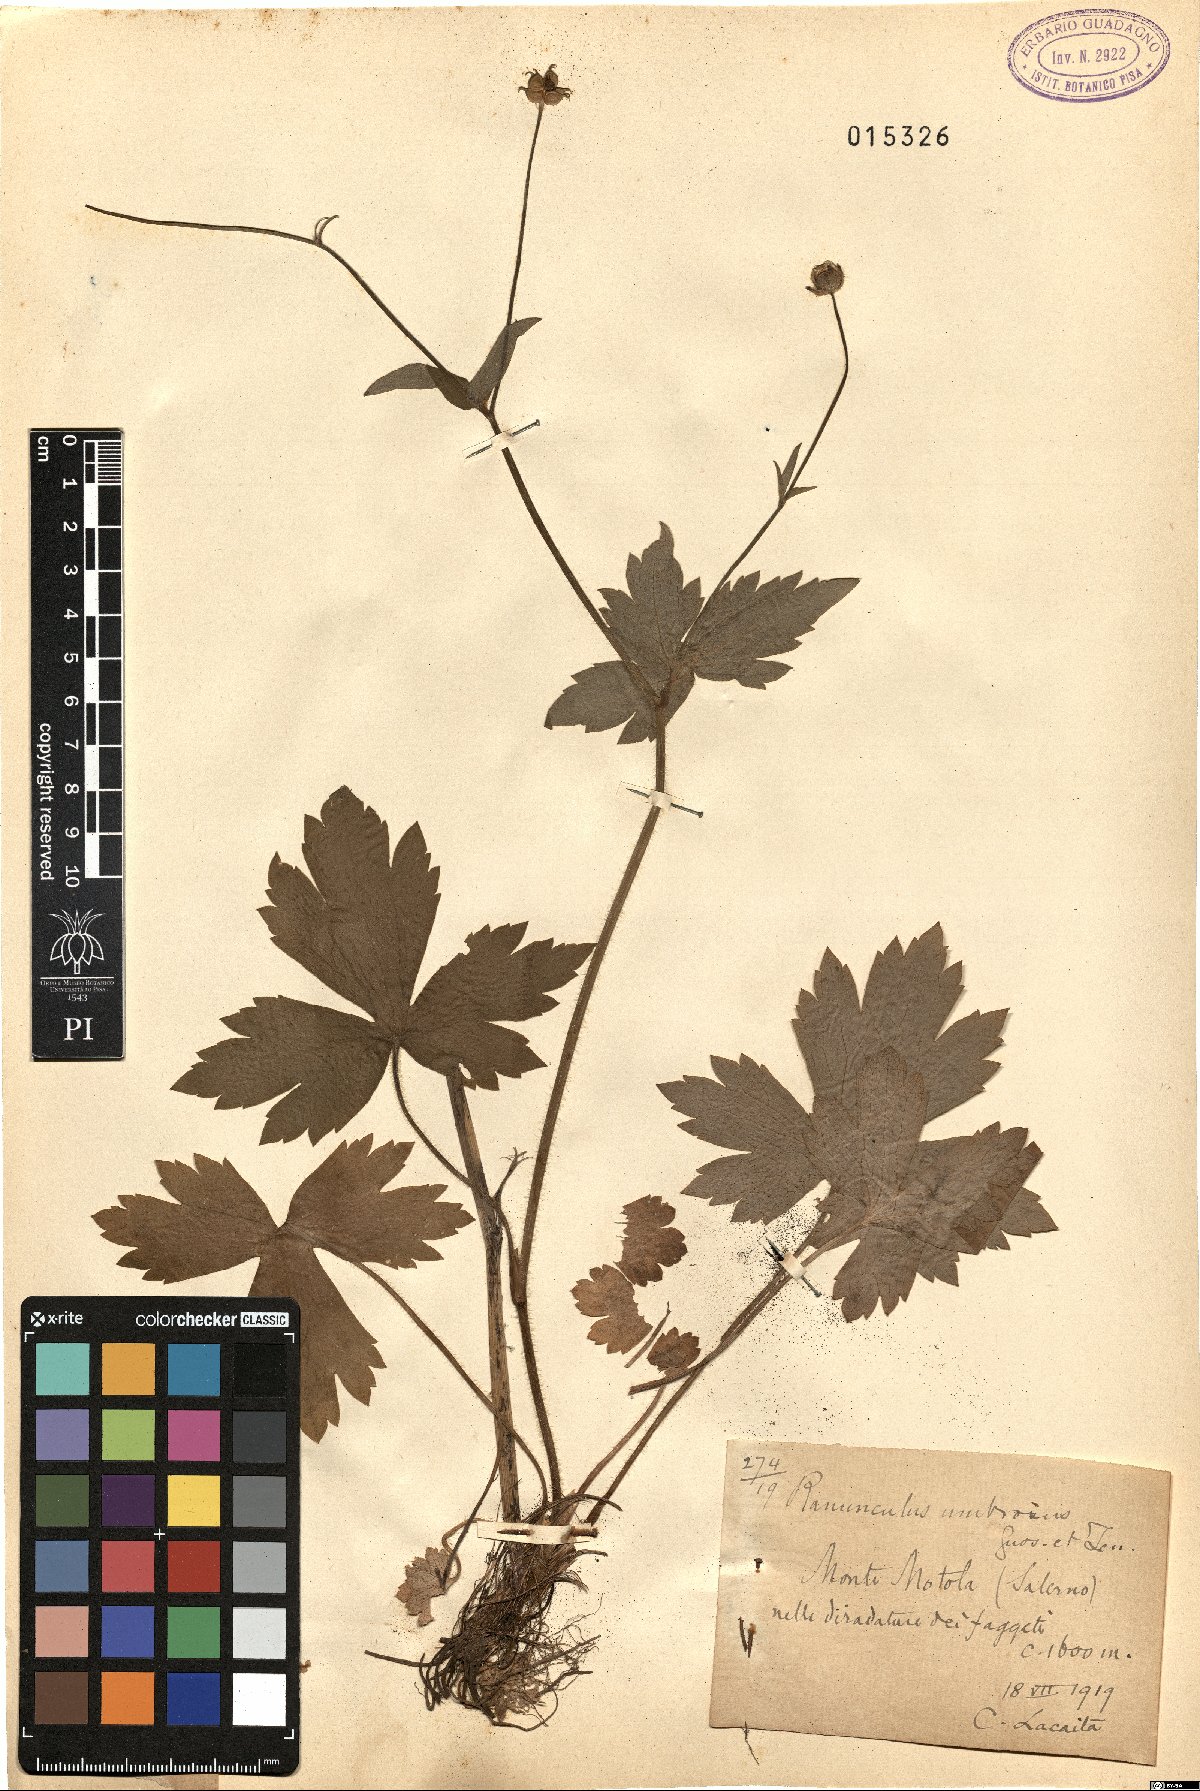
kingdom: Plantae
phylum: Tracheophyta
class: Magnoliopsida
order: Ranunculales
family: Ranunculaceae
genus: Ranunculus
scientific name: Ranunculus lanuginosus
